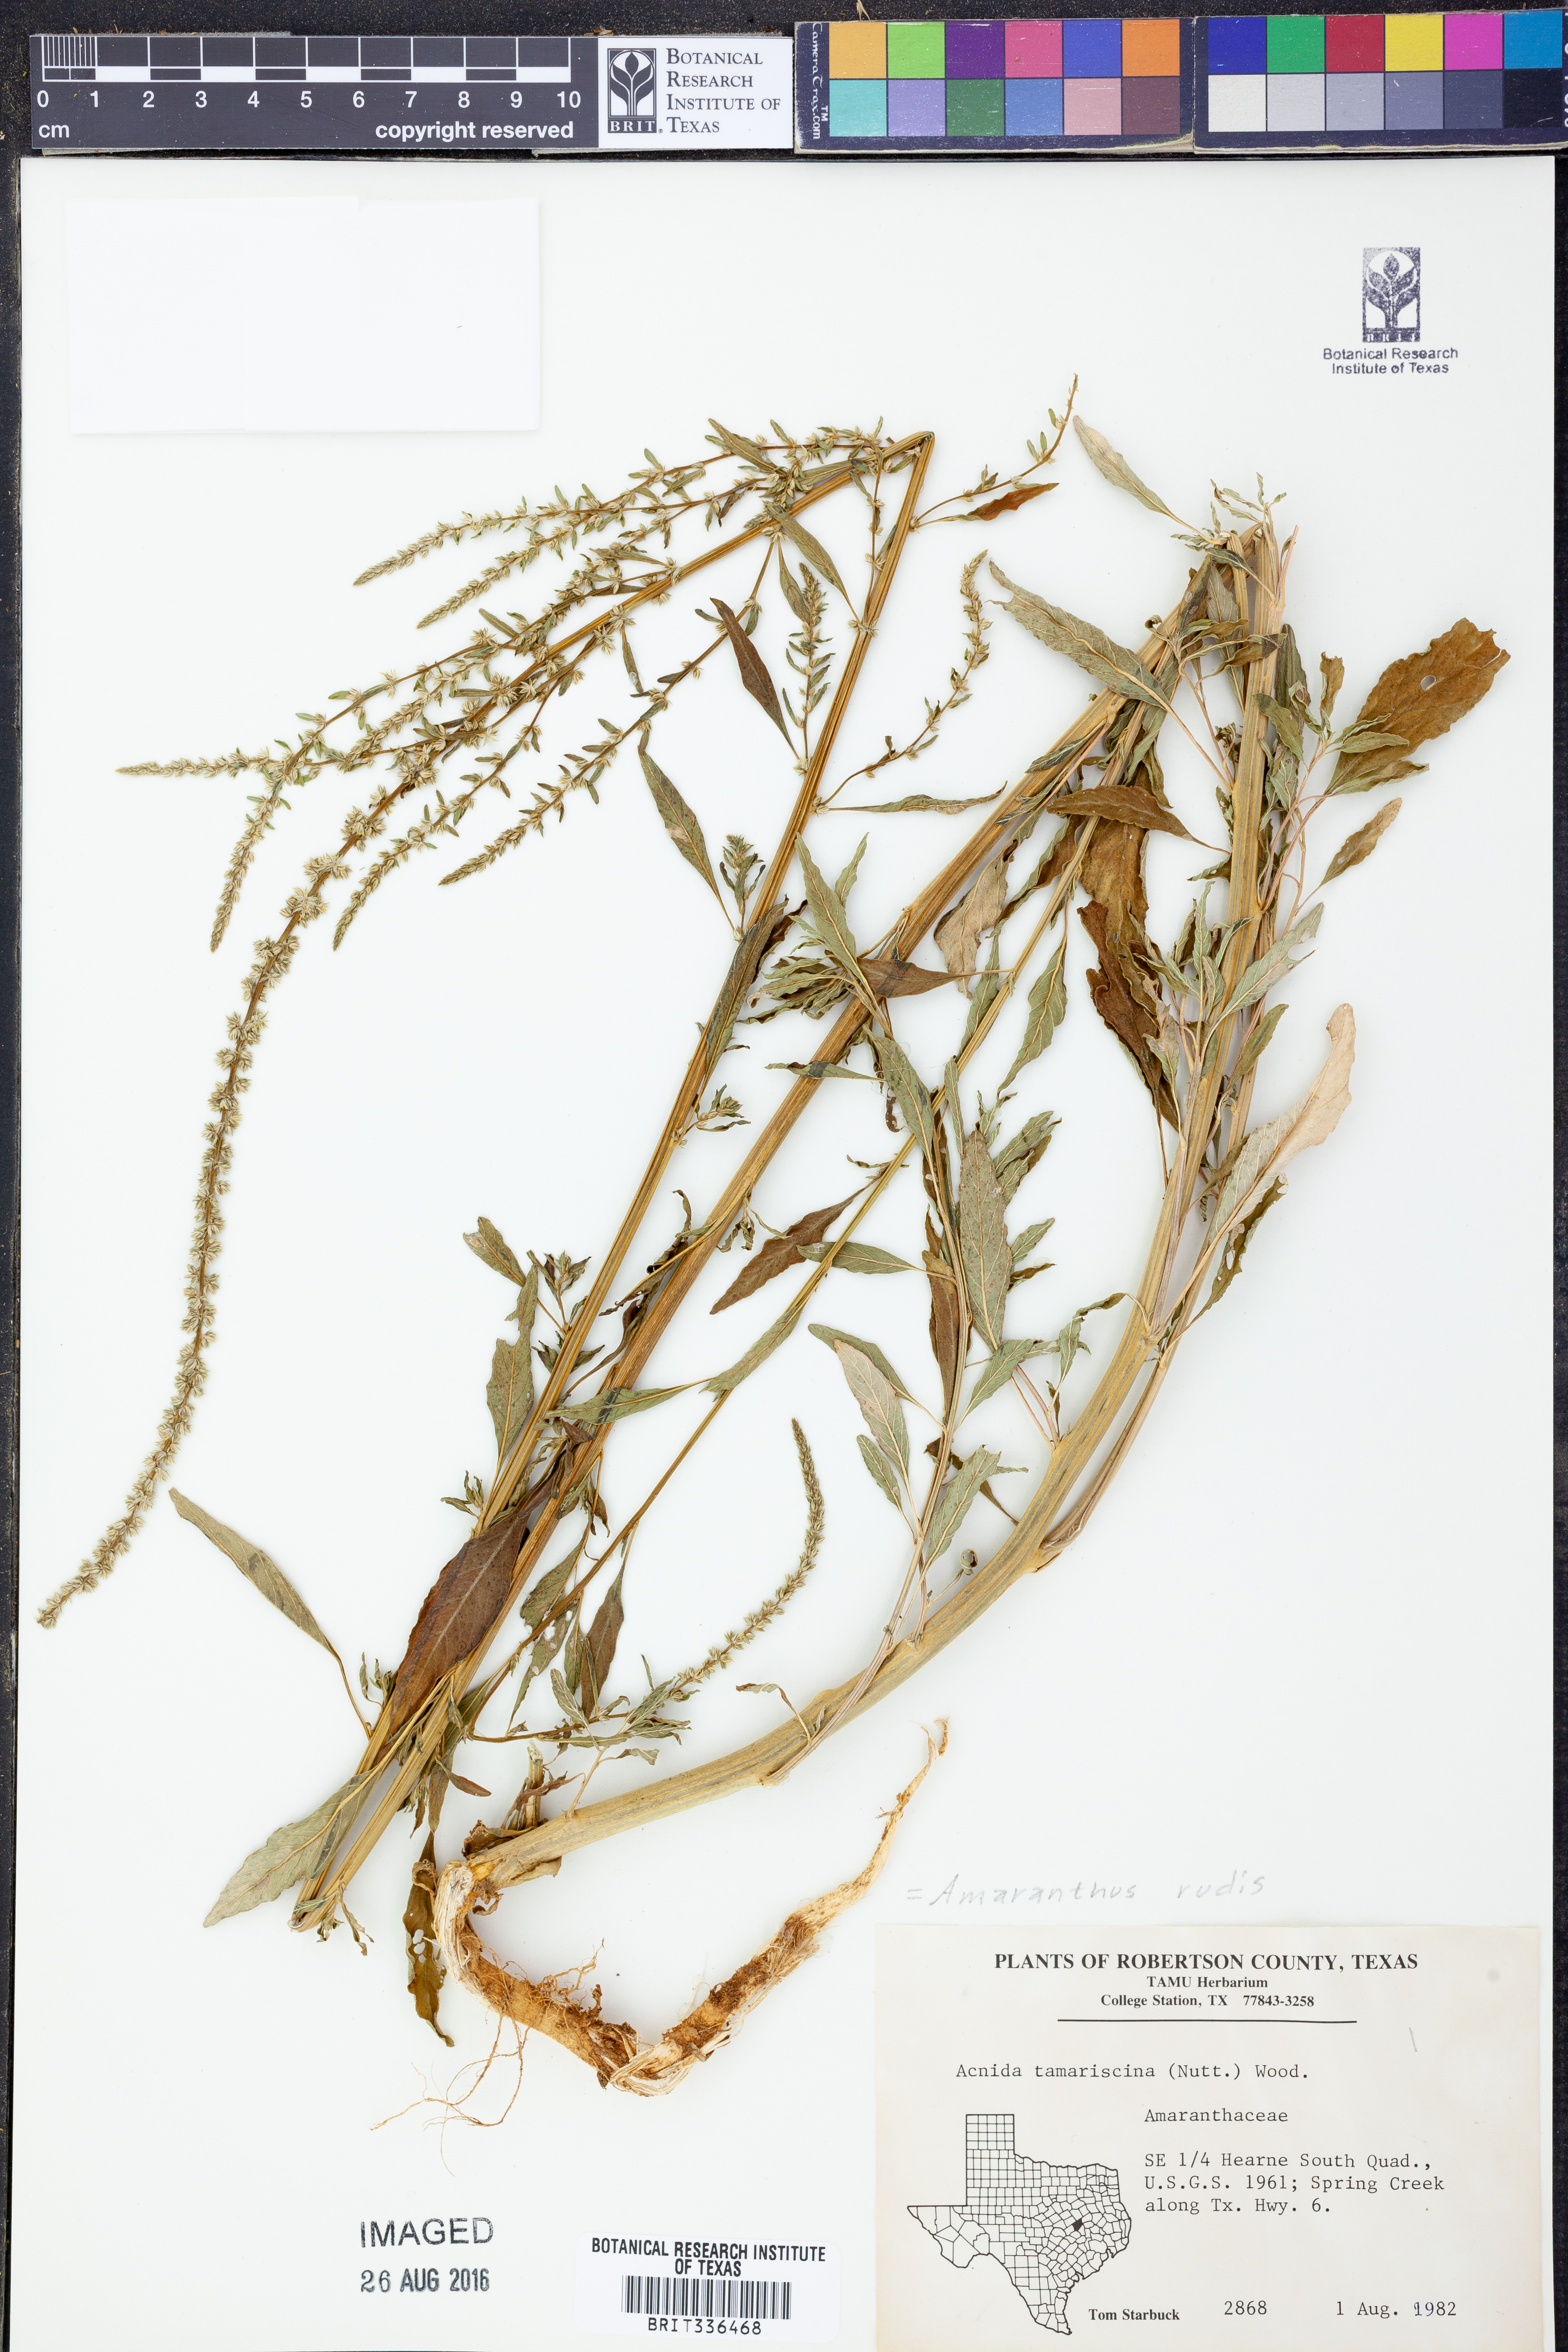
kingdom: Plantae
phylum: Tracheophyta
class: Magnoliopsida
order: Caryophyllales
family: Amaranthaceae
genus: Amaranthus
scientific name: Amaranthus tuberculatus
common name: Rough-fruit amaranth
